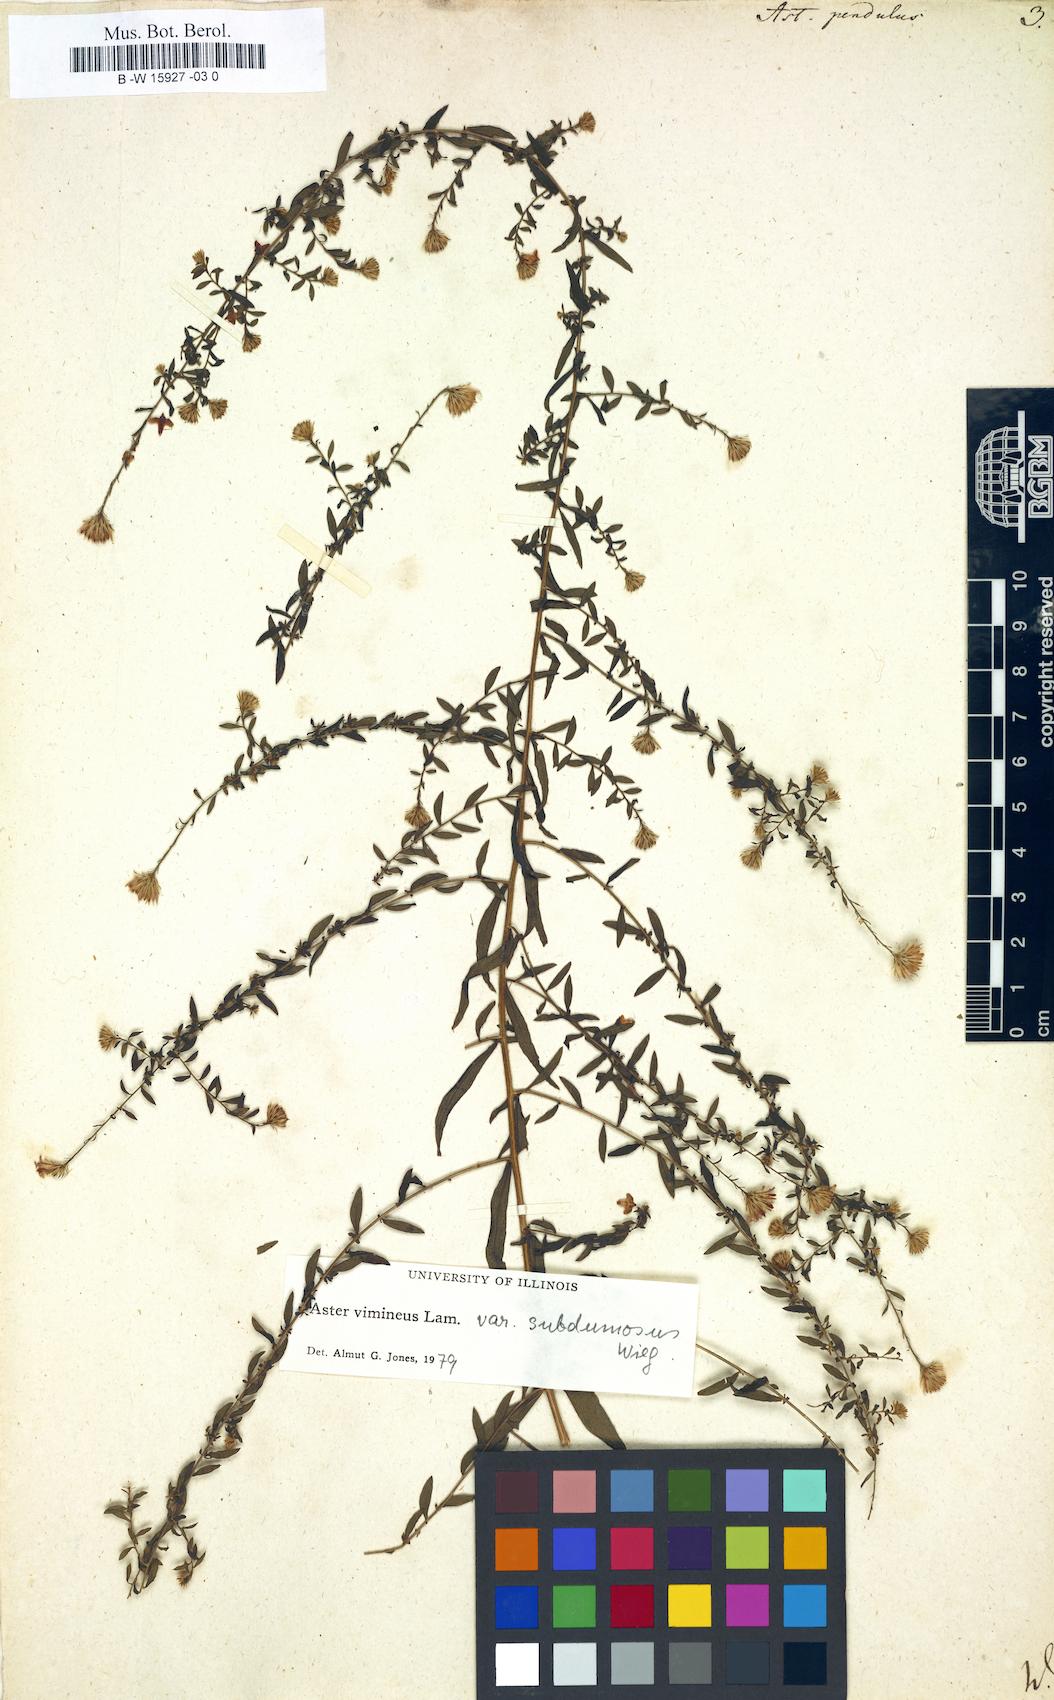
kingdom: Plantae
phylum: Tracheophyta
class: Magnoliopsida
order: Asterales
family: Asteraceae
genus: Symphyotrichum
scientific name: Symphyotrichum lateriflorum
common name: Calico aster
